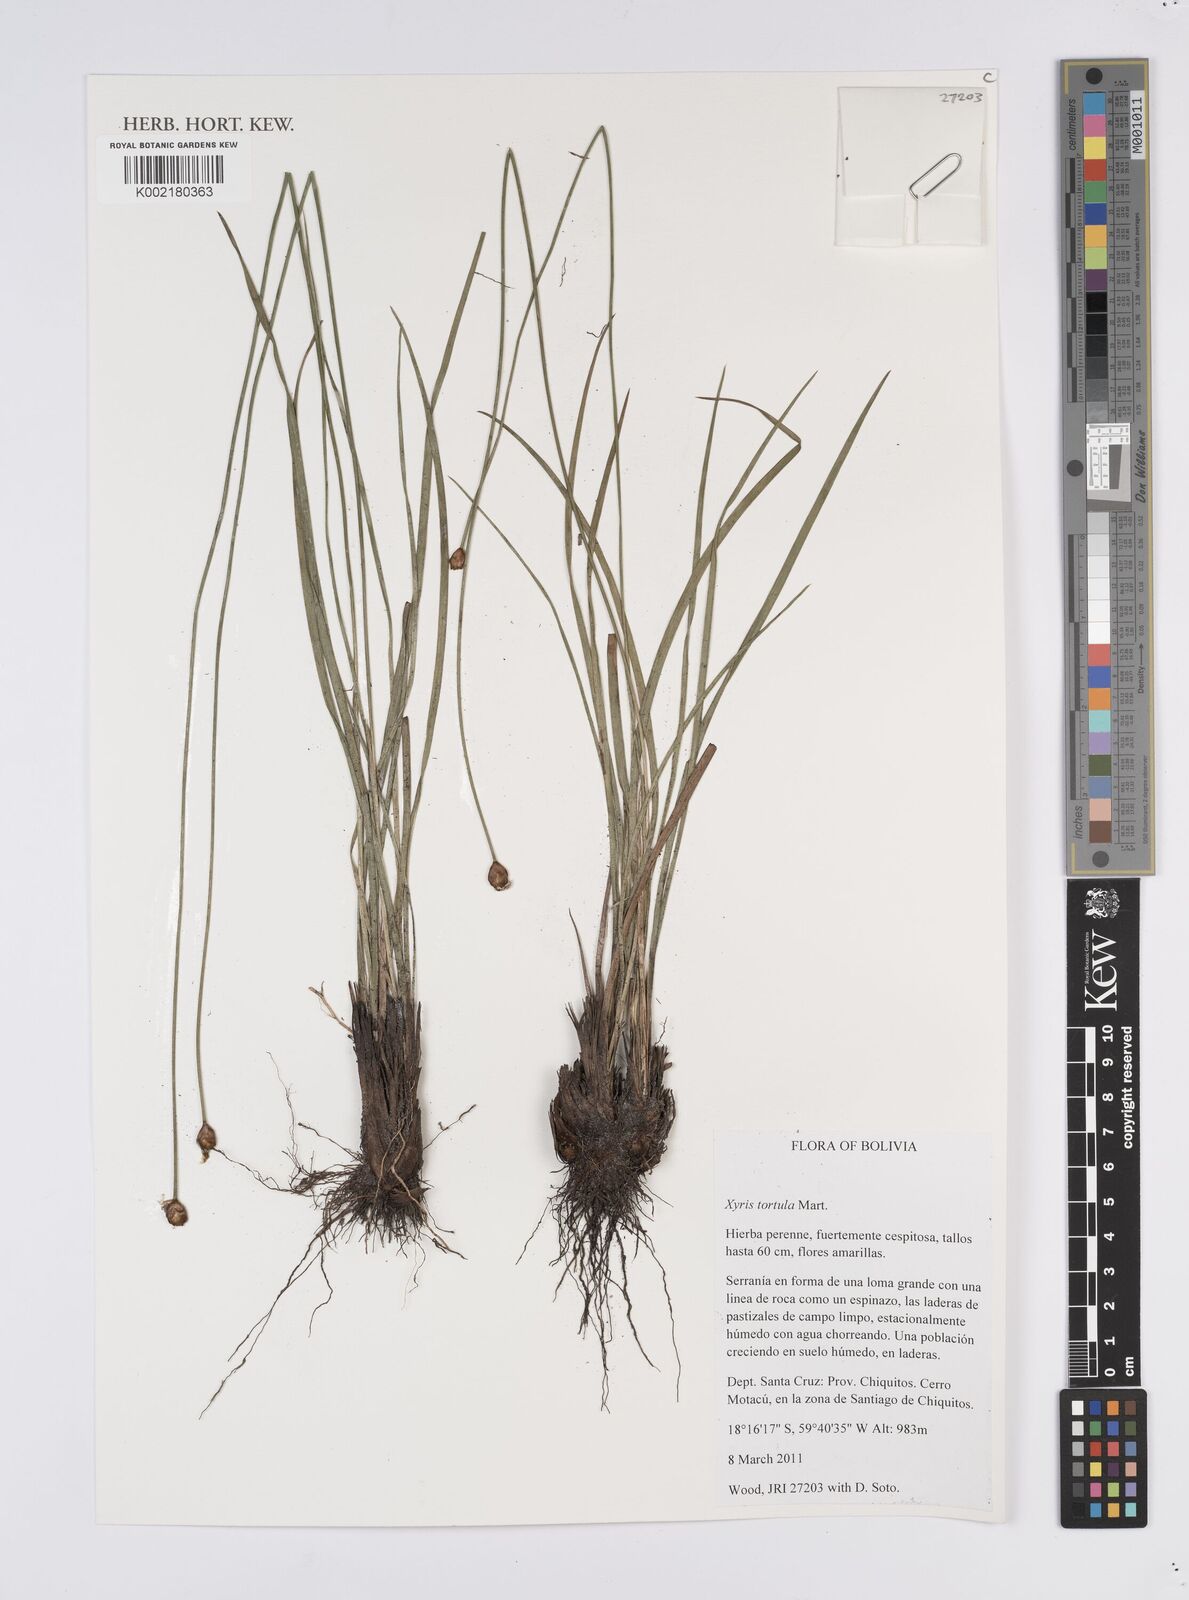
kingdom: Plantae
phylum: Tracheophyta
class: Liliopsida
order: Poales
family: Xyridaceae
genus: Xyris
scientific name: Xyris tortula
